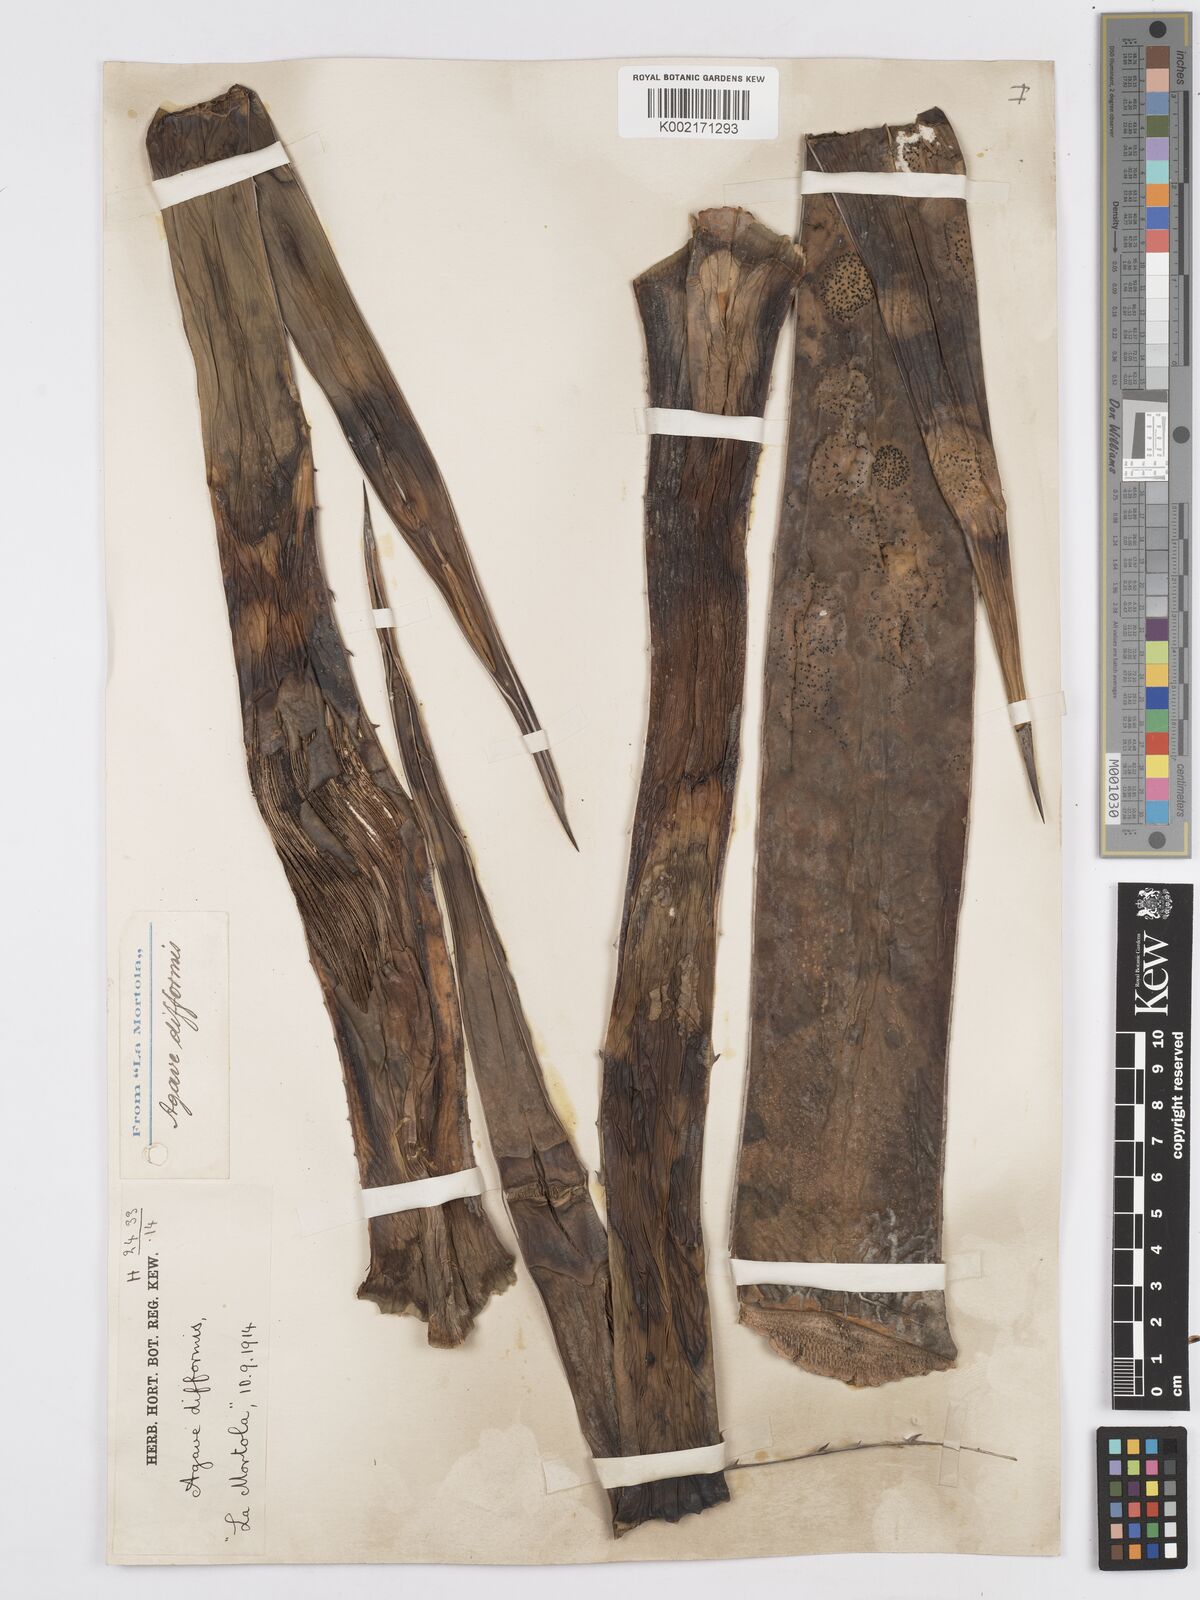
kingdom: Plantae
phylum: Tracheophyta
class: Liliopsida
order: Asparagales
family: Asparagaceae
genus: Agave
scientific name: Agave difformis
